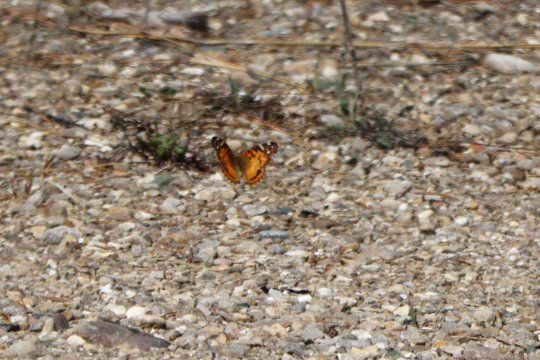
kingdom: Animalia
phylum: Arthropoda
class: Insecta
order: Lepidoptera
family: Nymphalidae
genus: Vanessa
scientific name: Vanessa virginiensis
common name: American Lady
